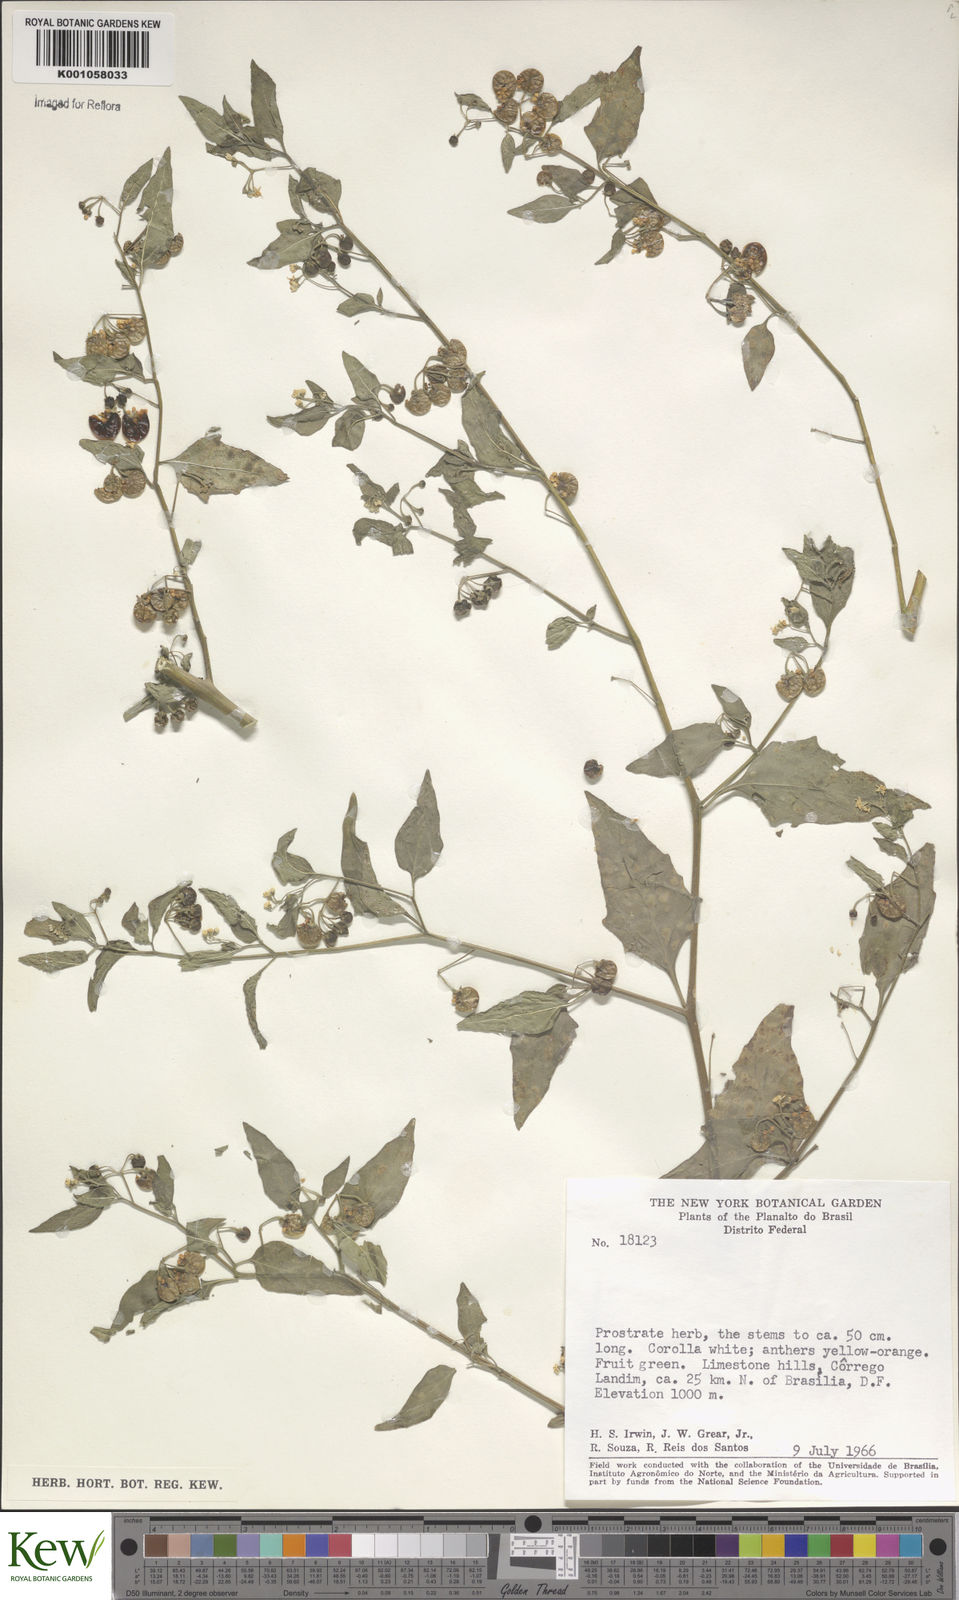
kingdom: Plantae
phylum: Tracheophyta
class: Magnoliopsida
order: Solanales
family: Solanaceae
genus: Solanum
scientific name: Solanum americanum
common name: American black nightshade
